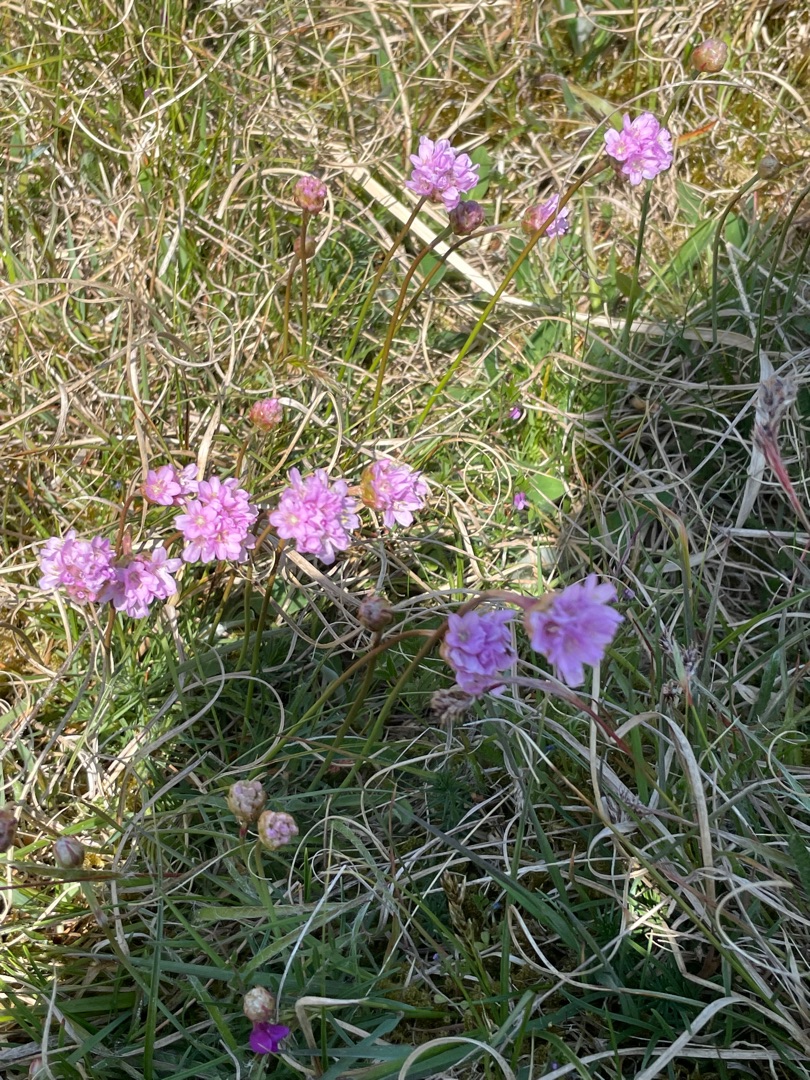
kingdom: Plantae
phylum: Tracheophyta
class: Magnoliopsida
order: Caryophyllales
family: Plumbaginaceae
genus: Armeria
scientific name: Armeria maritima
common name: Engelskgræs
